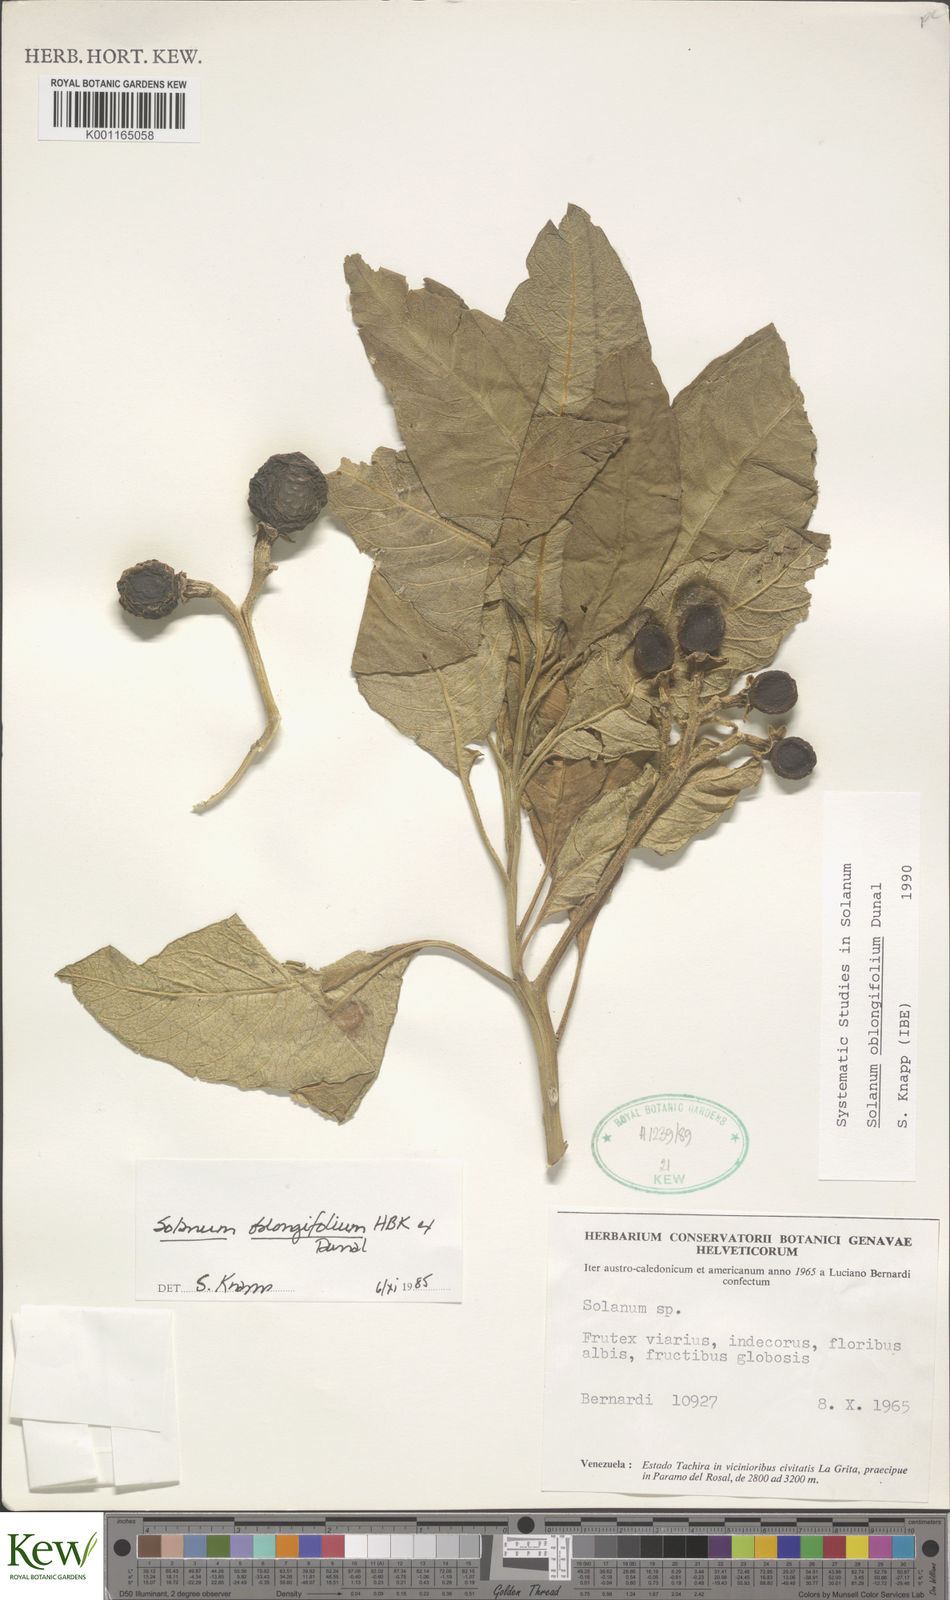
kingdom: Plantae
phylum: Tracheophyta
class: Magnoliopsida
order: Solanales
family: Solanaceae
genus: Solanum
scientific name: Solanum oblongifolium
